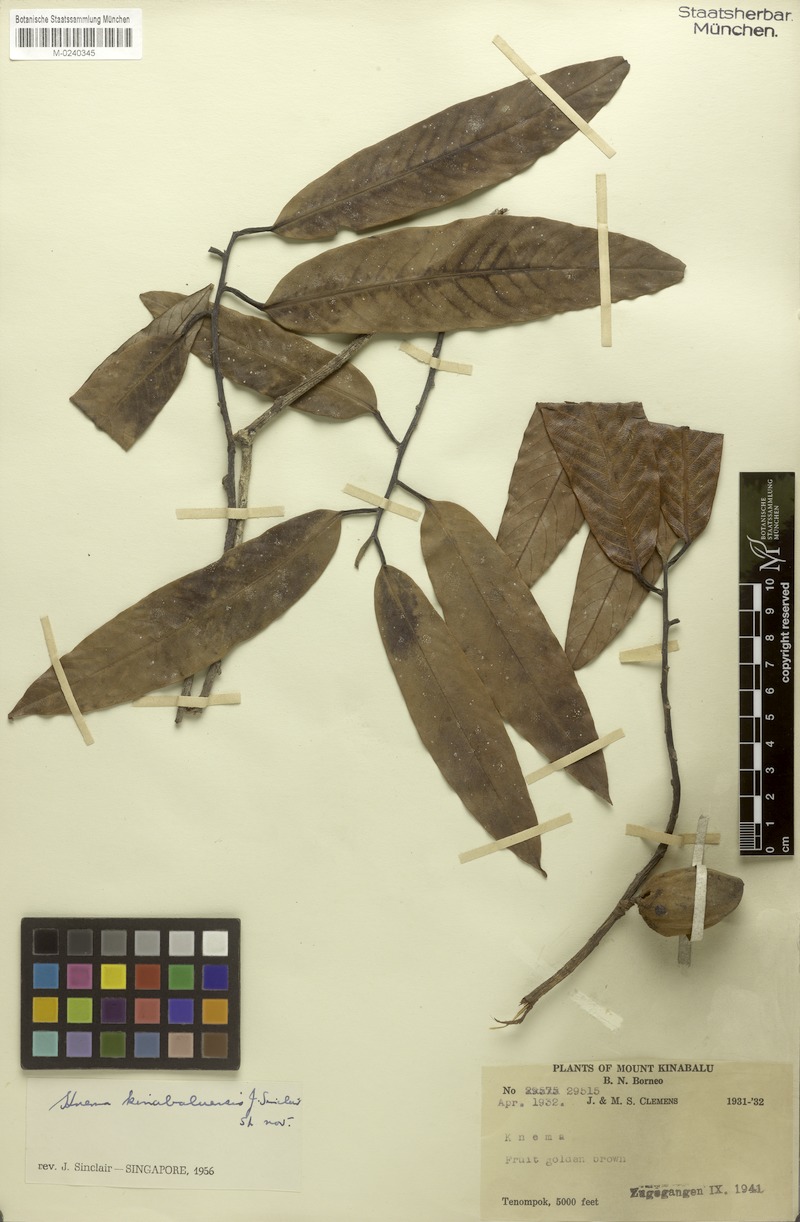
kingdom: Plantae
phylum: Tracheophyta
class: Magnoliopsida
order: Magnoliales
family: Myristicaceae
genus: Knema
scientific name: Knema kinabaluensis
